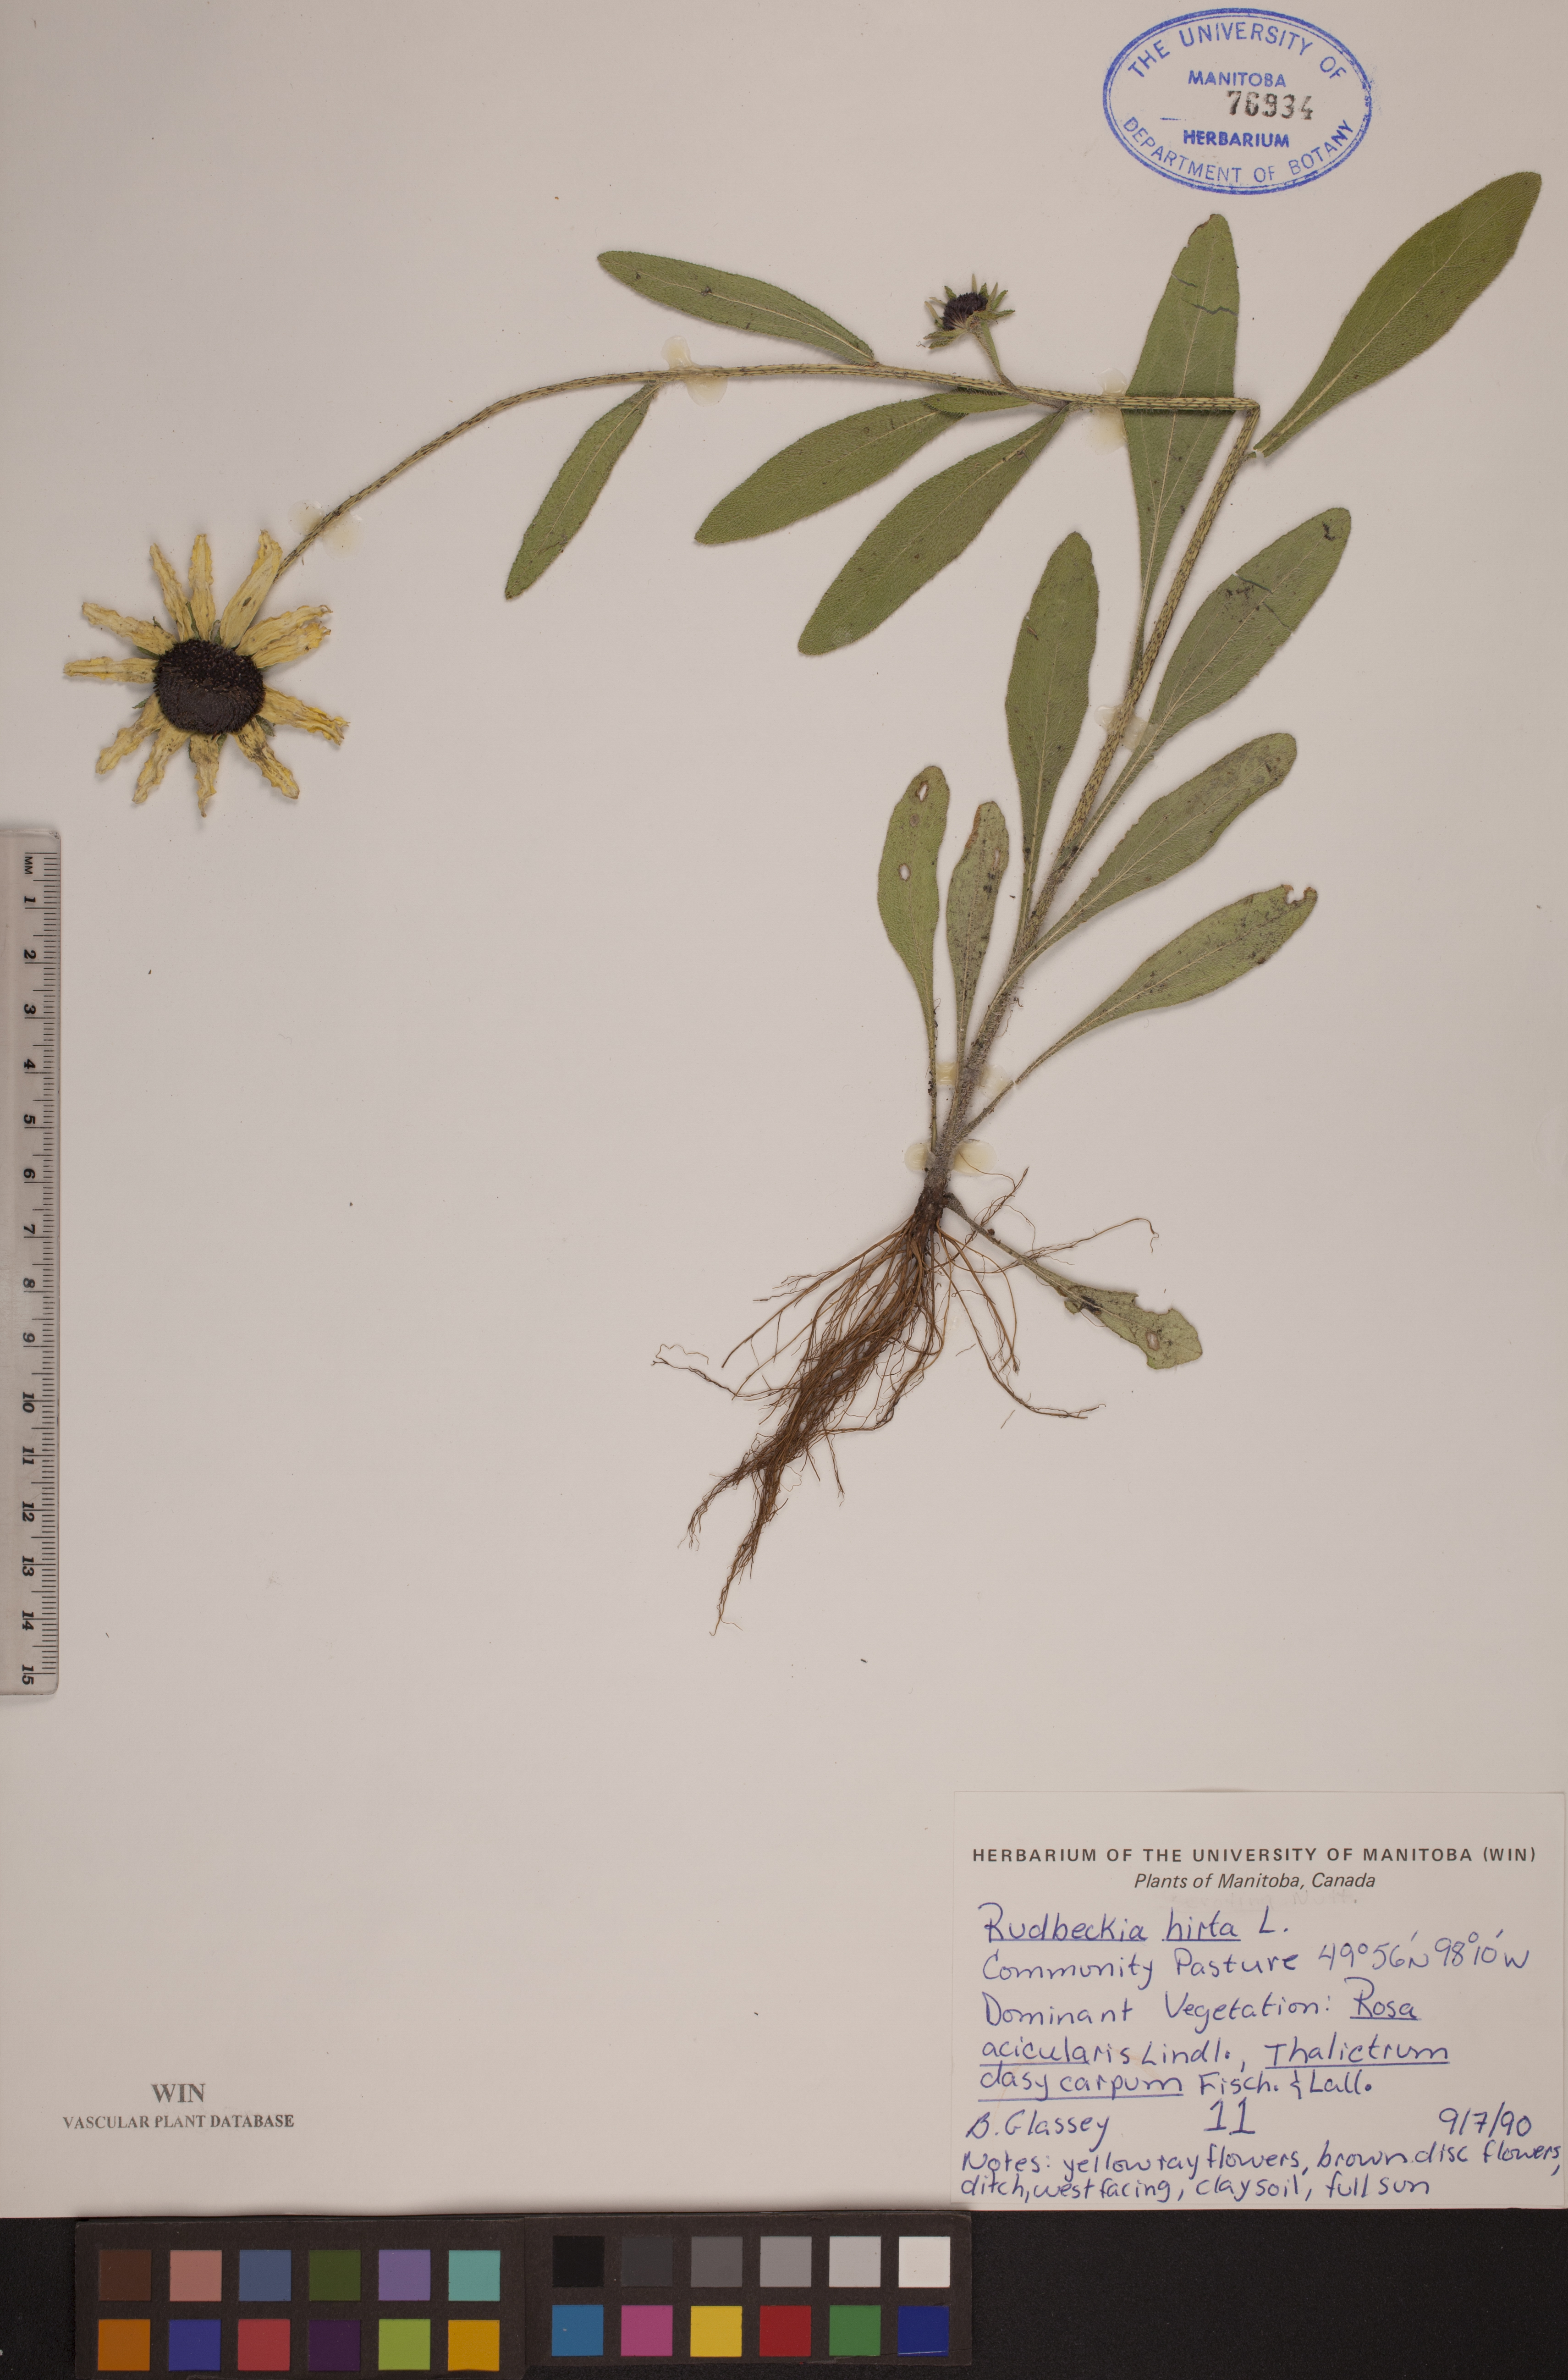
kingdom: Plantae
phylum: Tracheophyta
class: Magnoliopsida
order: Asterales
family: Asteraceae
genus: Rudbeckia
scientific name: Rudbeckia hirta
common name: Black-eyed-susan
